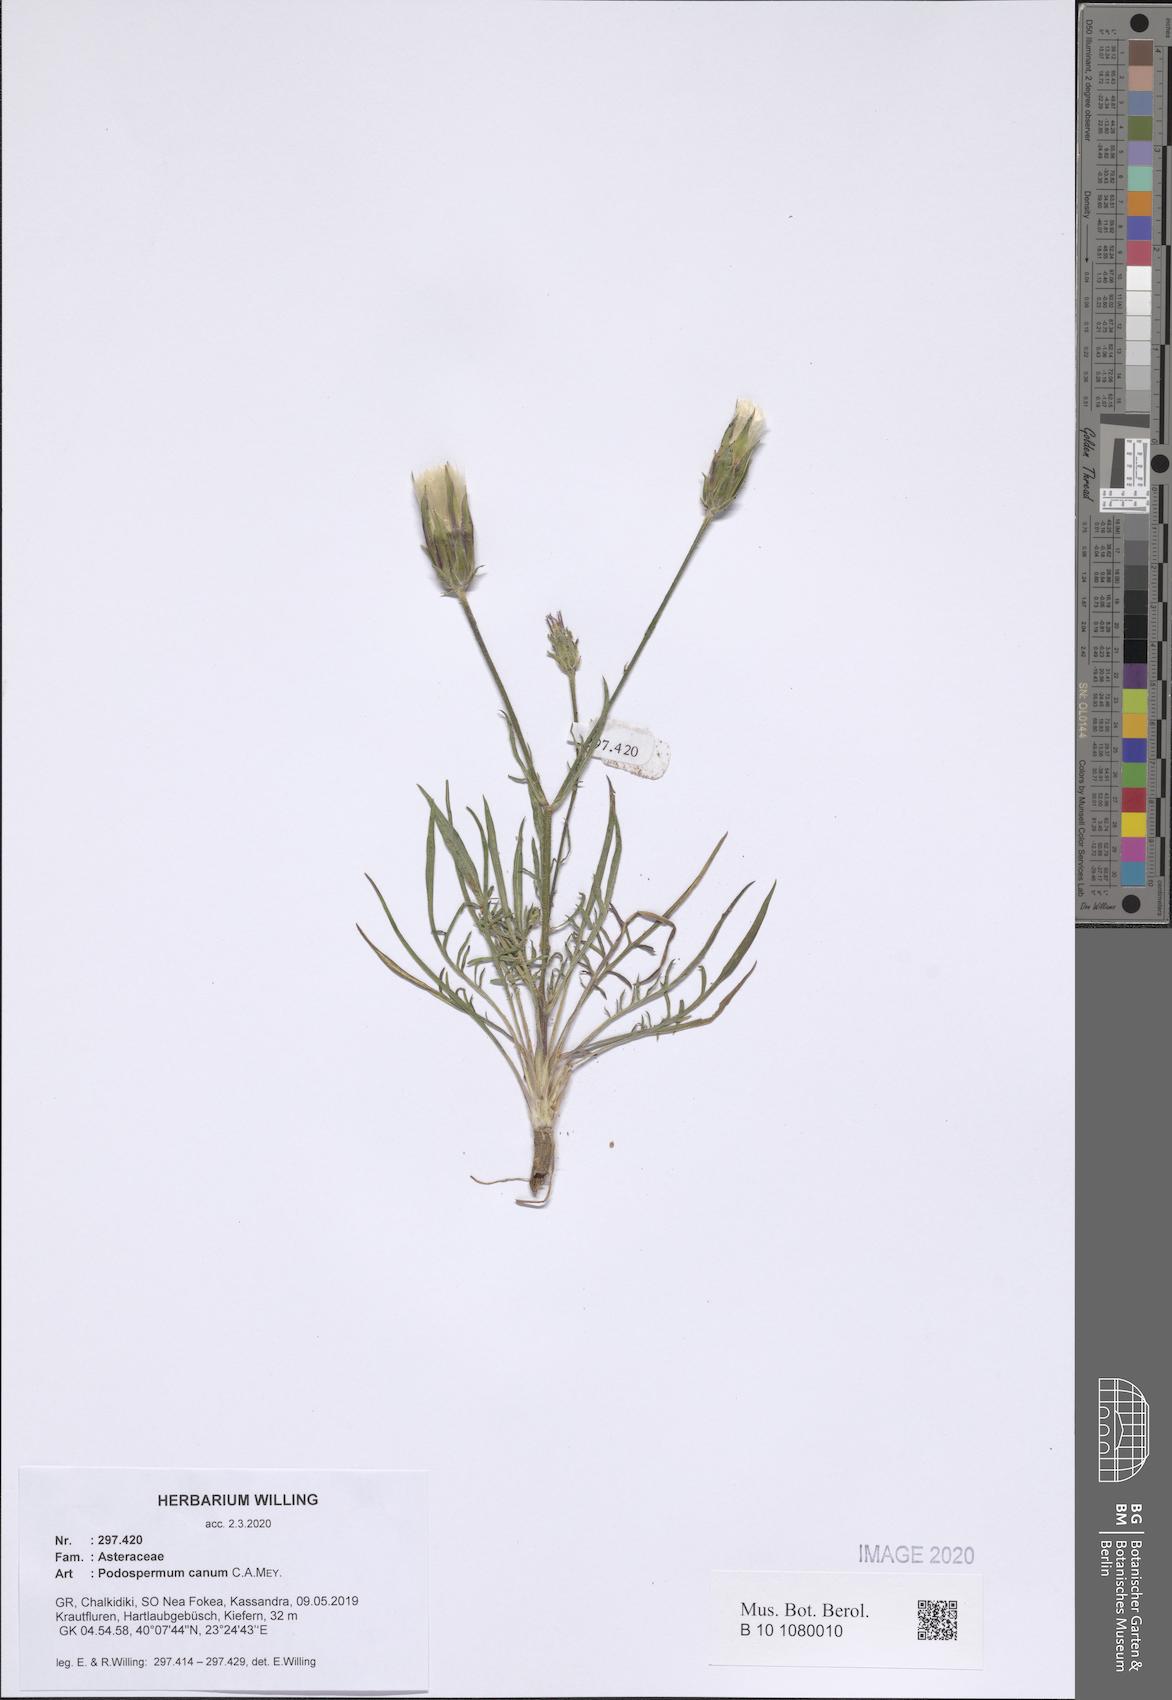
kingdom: Plantae
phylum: Tracheophyta
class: Magnoliopsida
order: Asterales
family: Asteraceae
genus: Scorzonera
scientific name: Scorzonera cana
